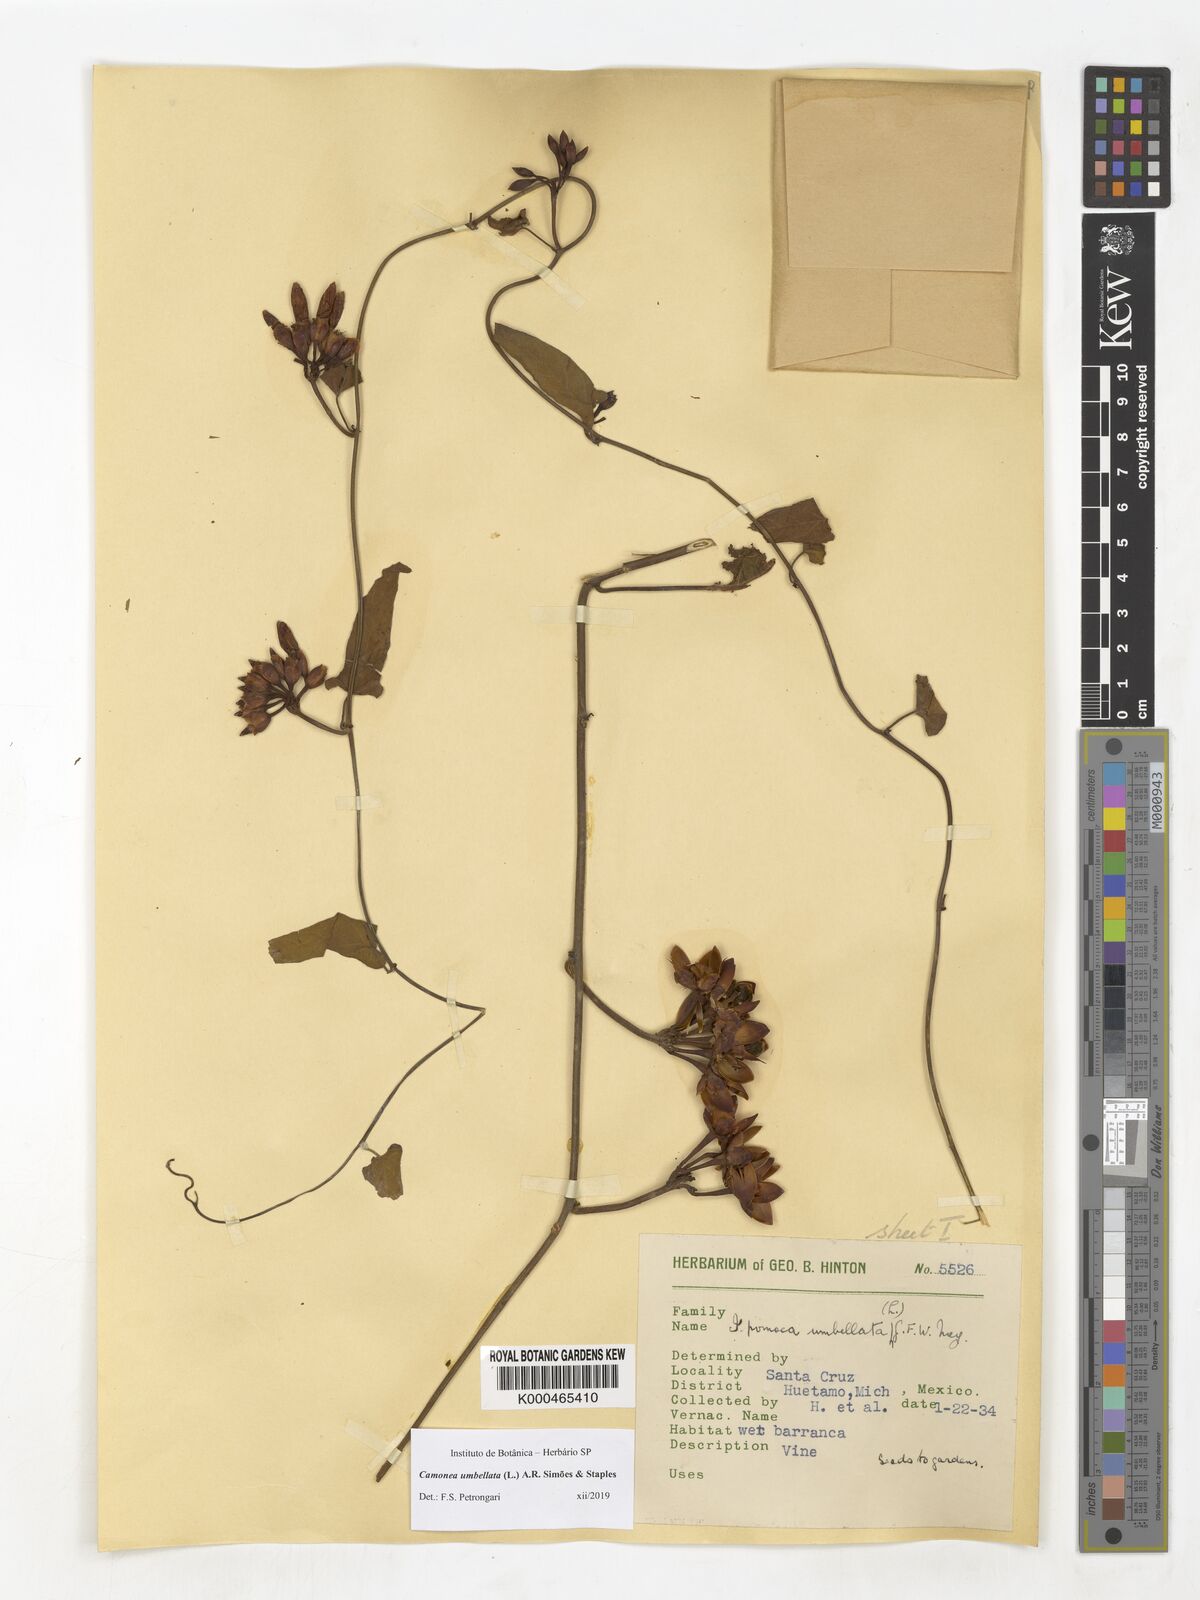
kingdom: Plantae
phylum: Tracheophyta
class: Magnoliopsida
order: Solanales
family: Convolvulaceae
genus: Camonea
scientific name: Camonea umbellata
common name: Hogvine
